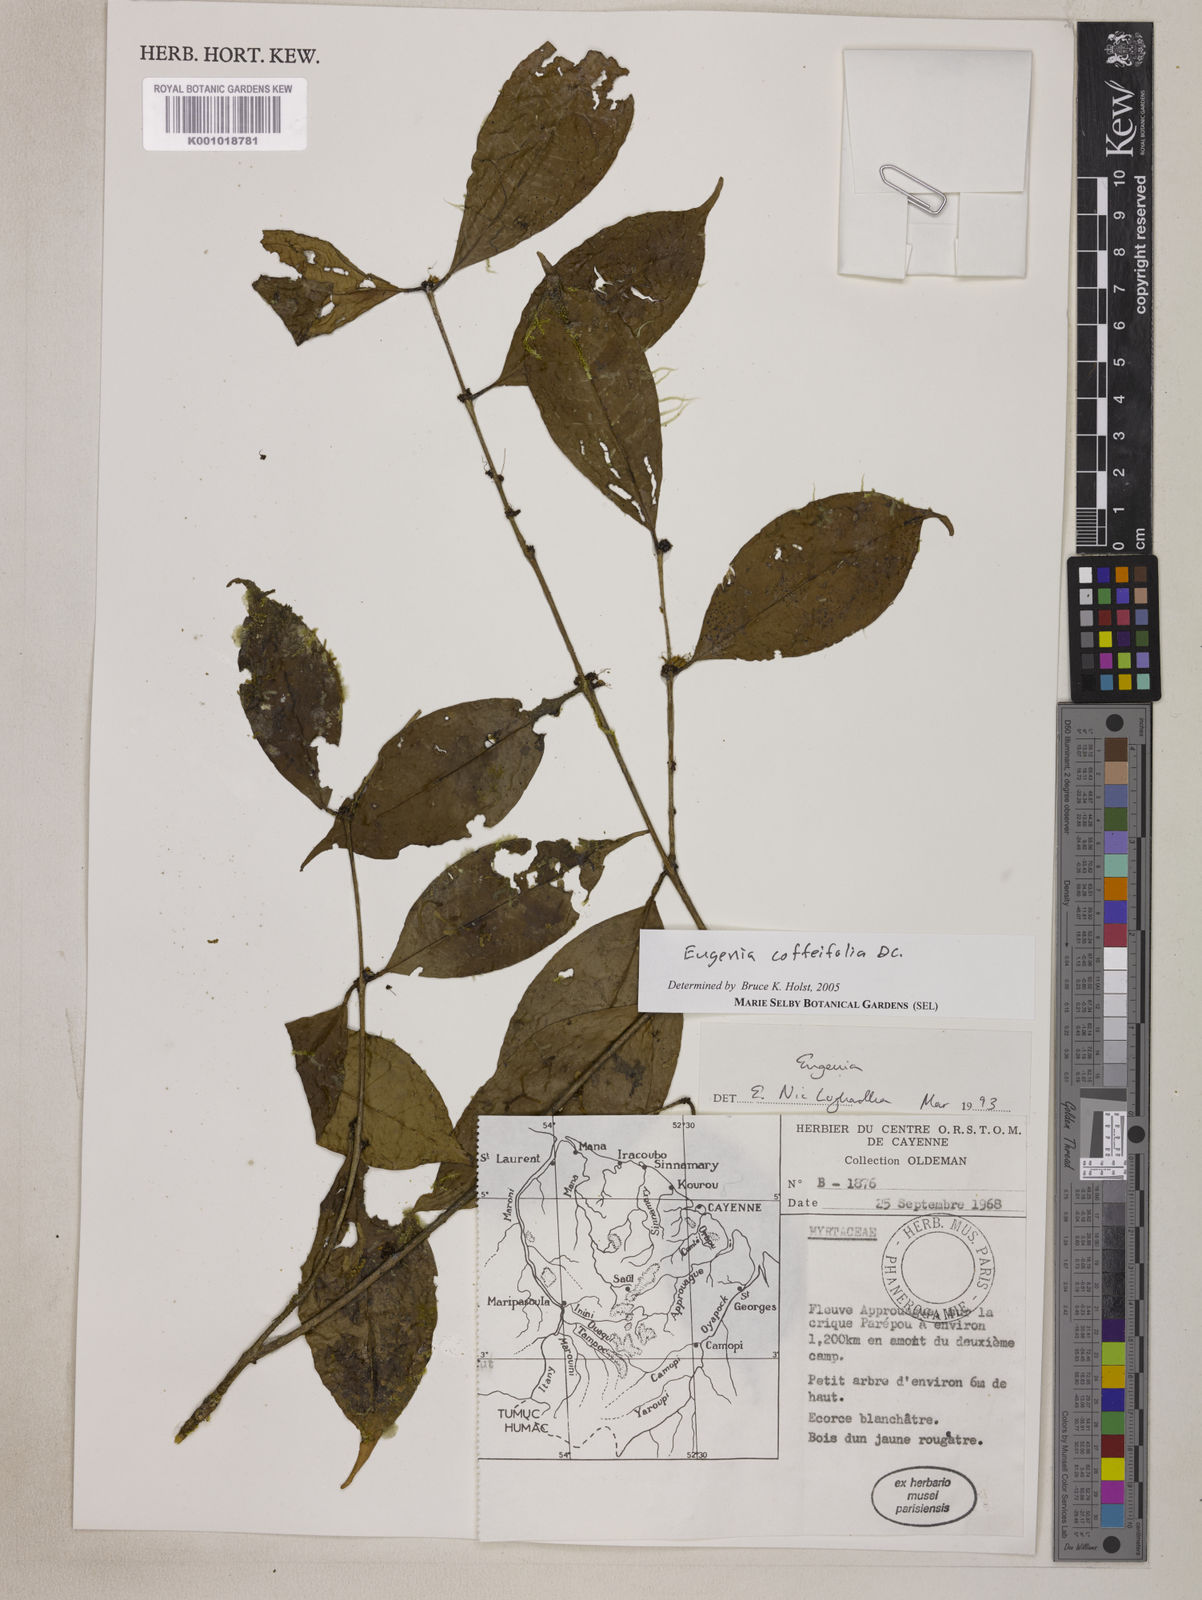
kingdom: Plantae
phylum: Tracheophyta
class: Magnoliopsida
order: Myrtales
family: Myrtaceae
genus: Eugenia
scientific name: Eugenia coffeifolia
